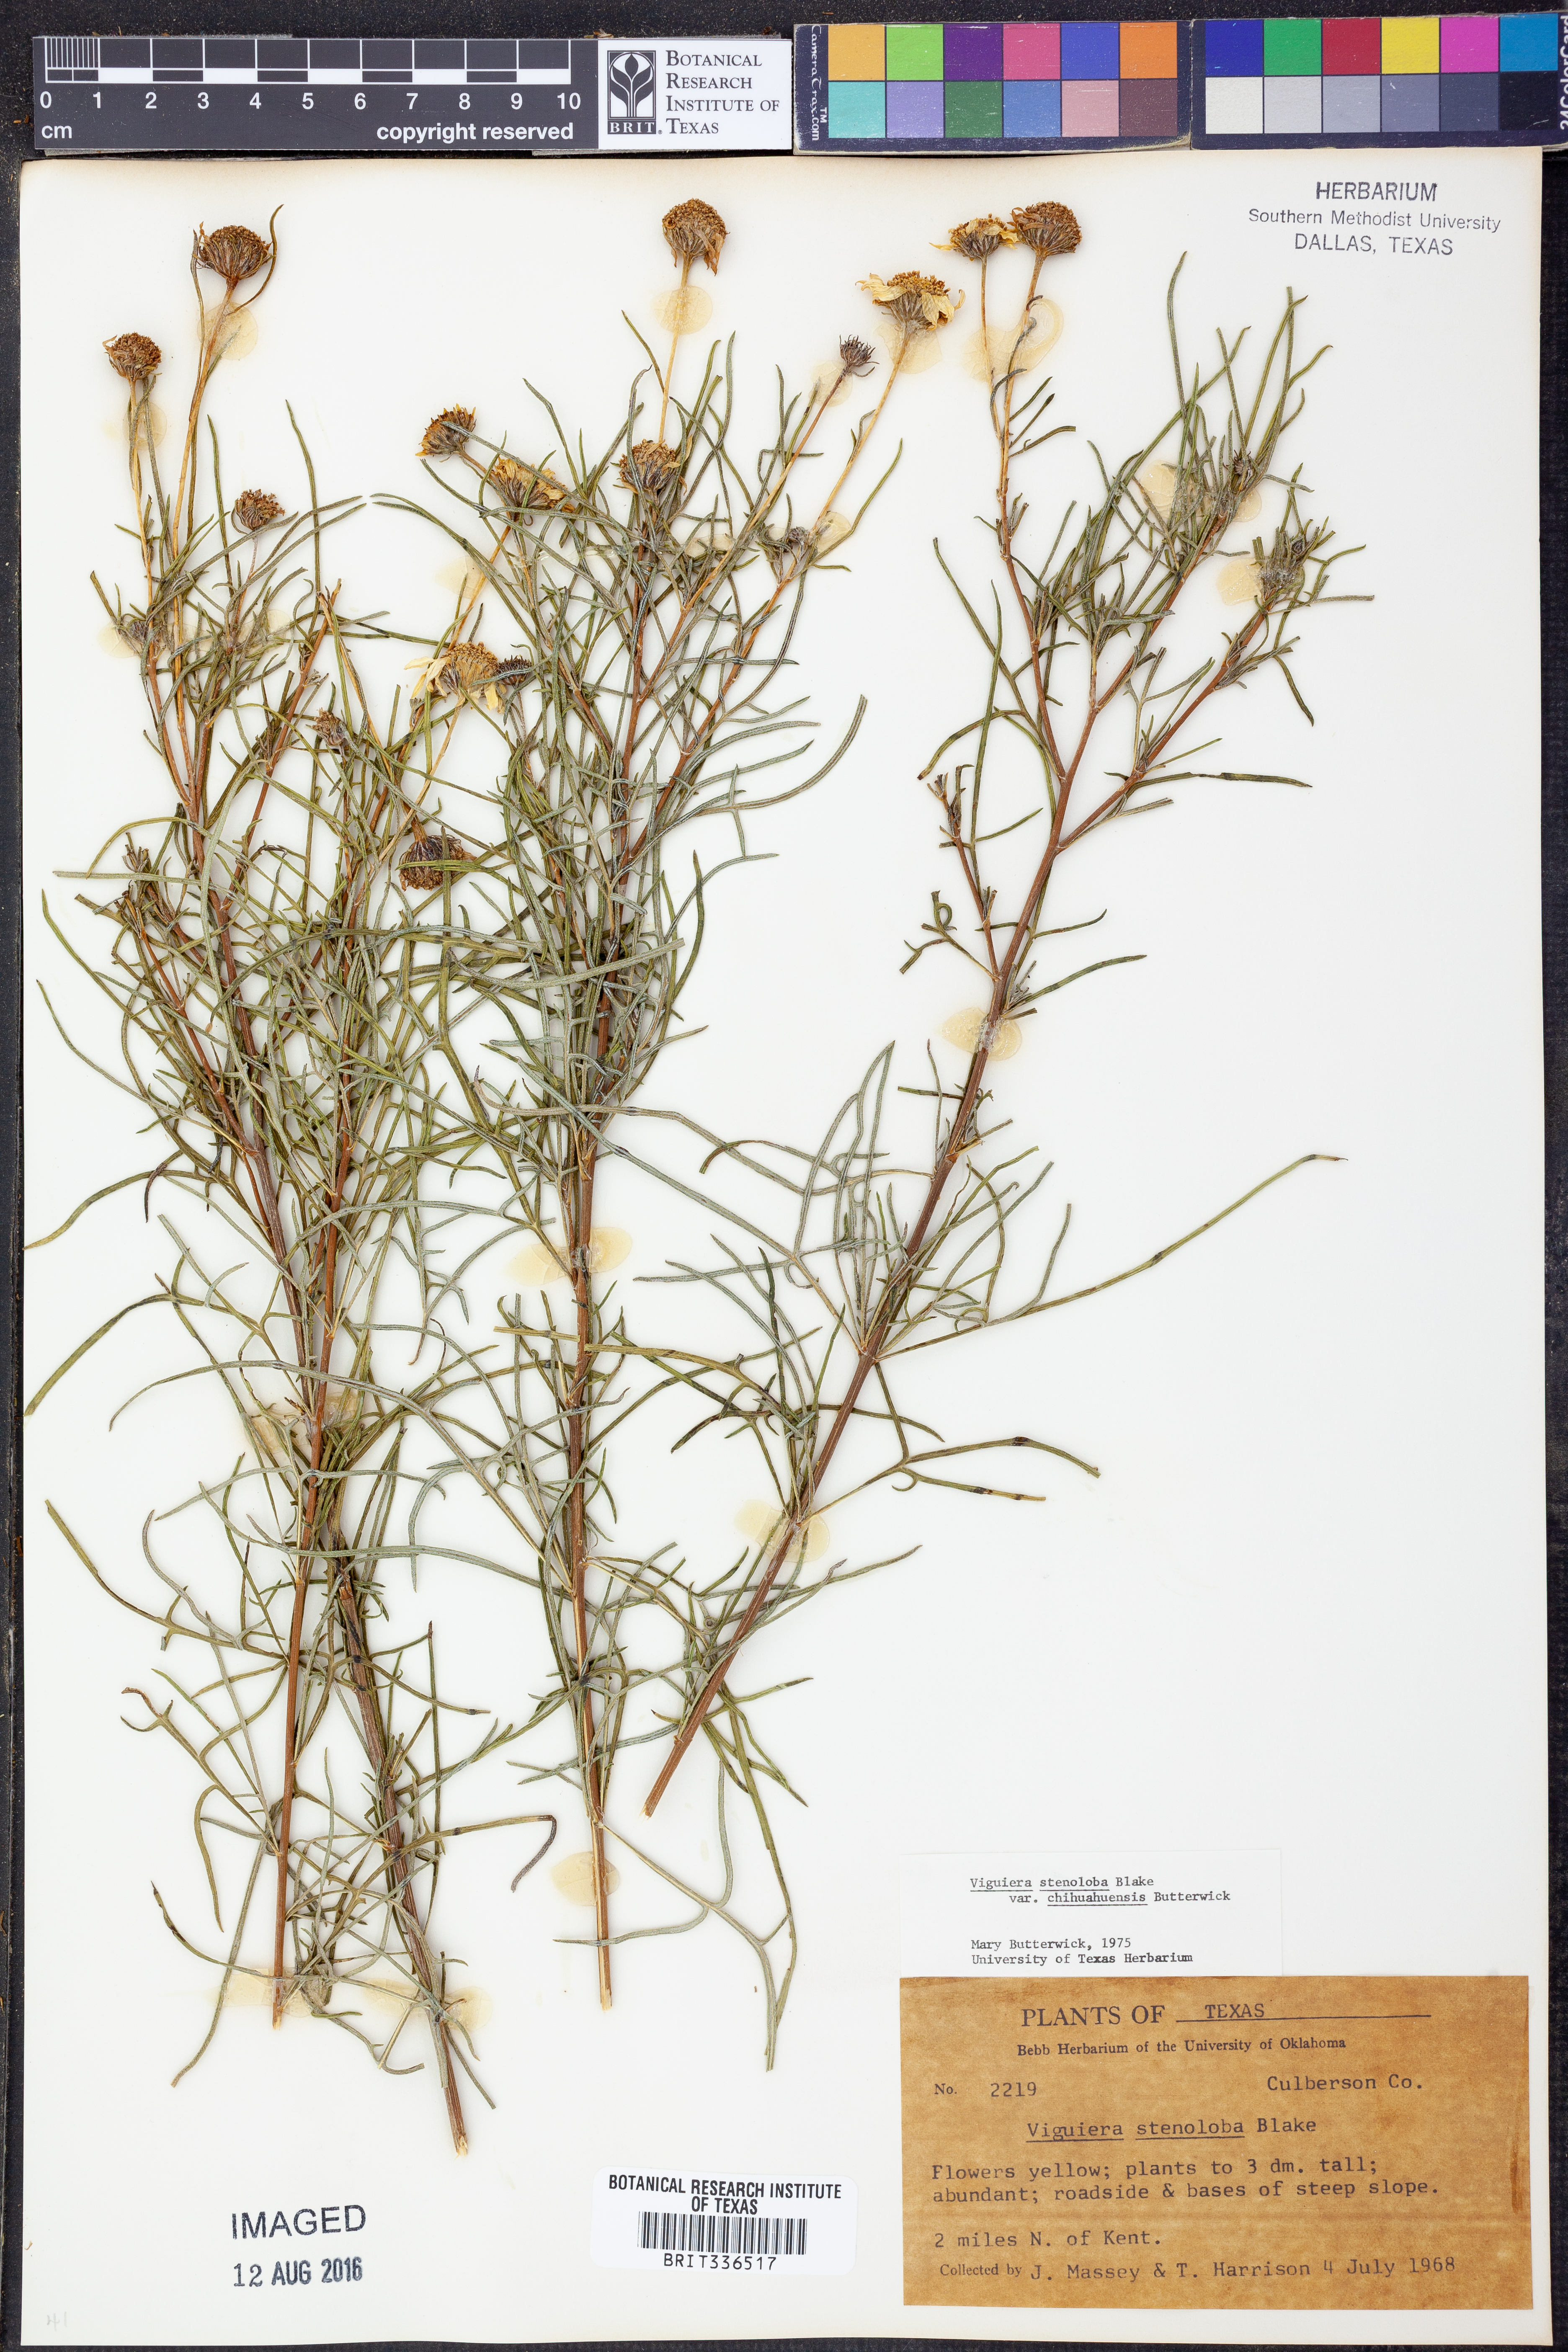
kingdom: Plantae
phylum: Tracheophyta
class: Magnoliopsida
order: Asterales
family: Asteraceae
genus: Sidneya
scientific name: Sidneya tenuifolia
